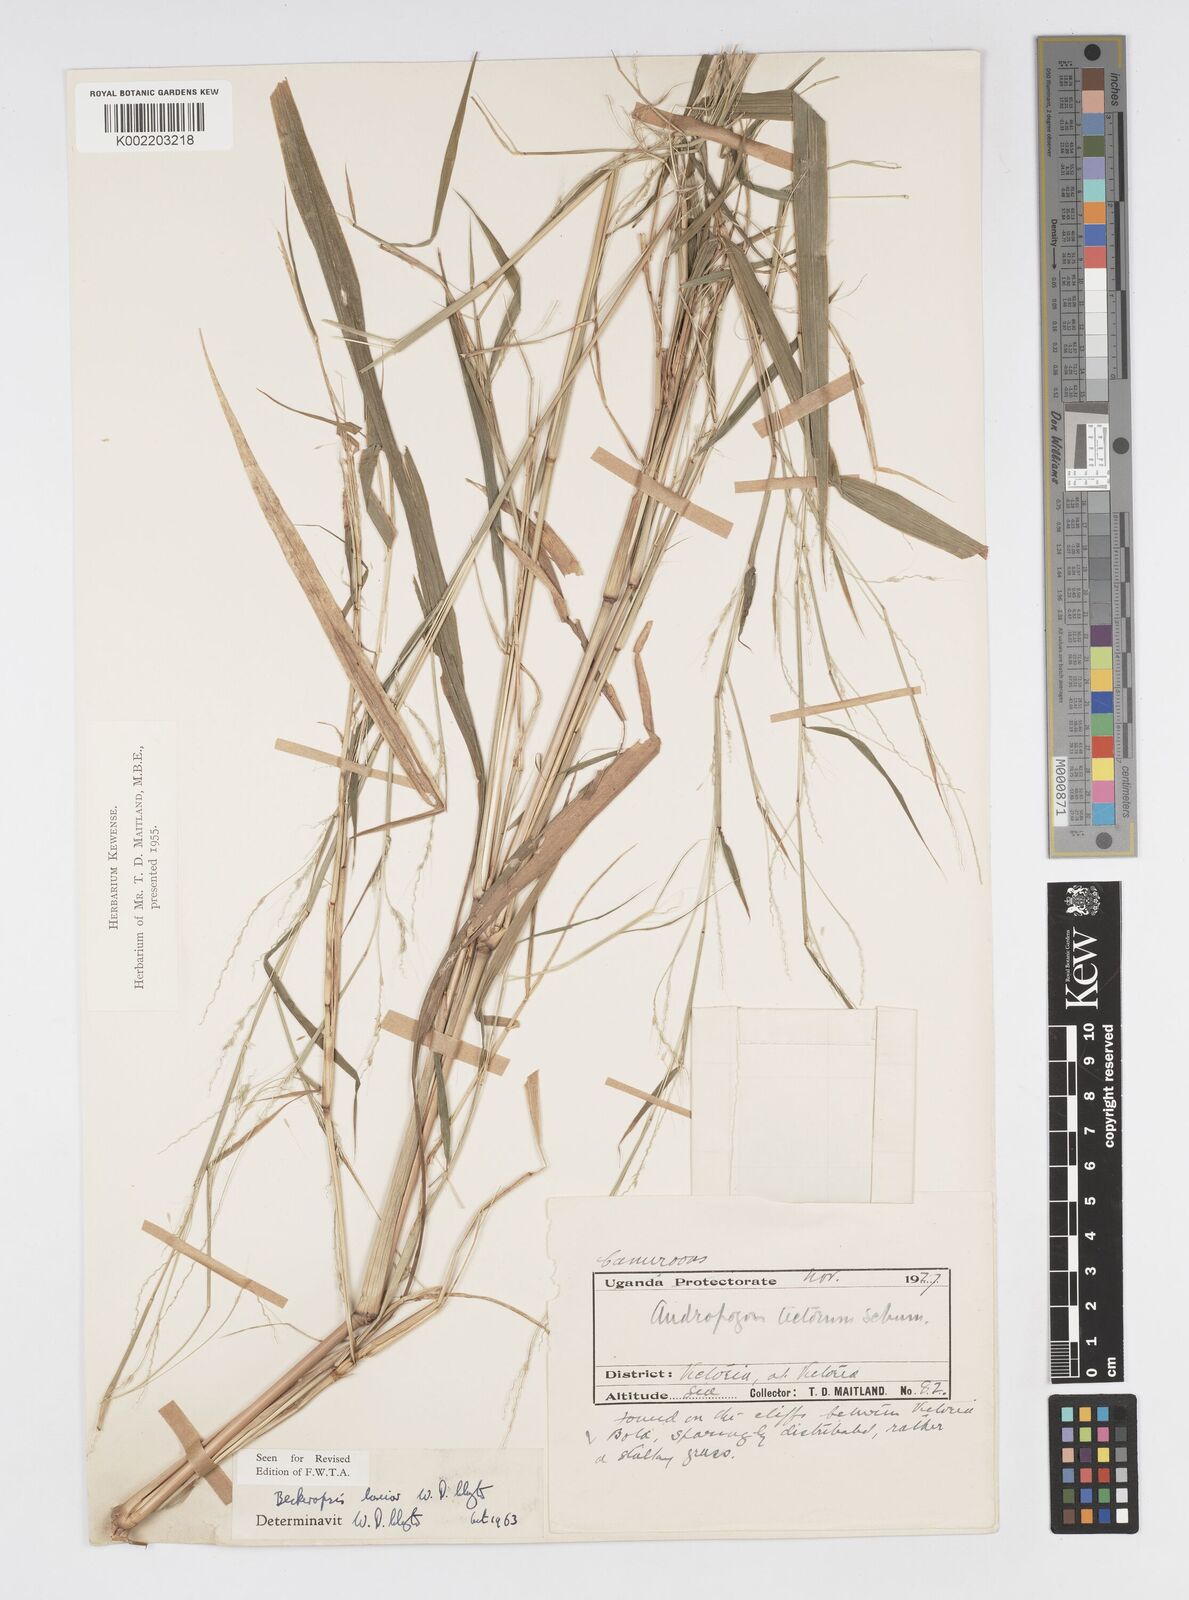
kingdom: Plantae
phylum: Tracheophyta
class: Liliopsida
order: Poales
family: Poaceae
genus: Cenchrus
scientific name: Cenchrus Pennisetum spec
